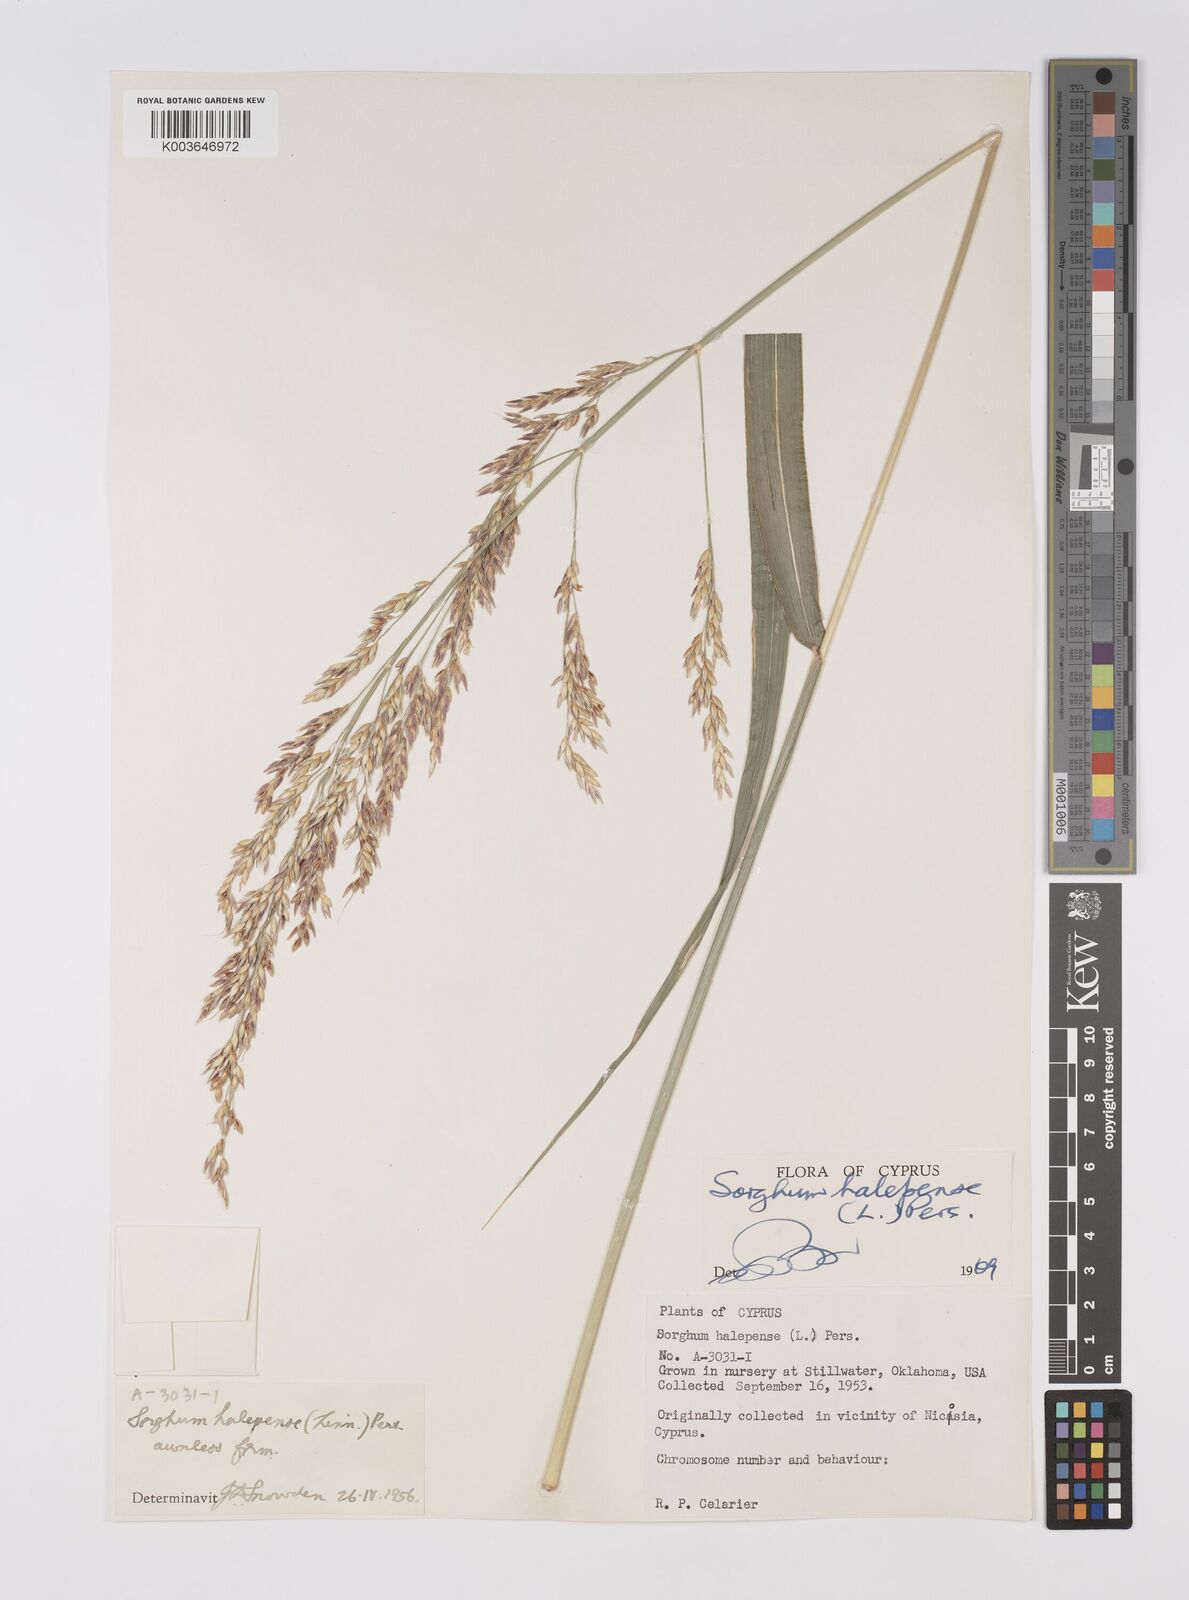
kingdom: Plantae
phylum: Tracheophyta
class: Liliopsida
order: Poales
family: Poaceae
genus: Sorghum
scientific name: Sorghum halepense
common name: Johnson-grass
